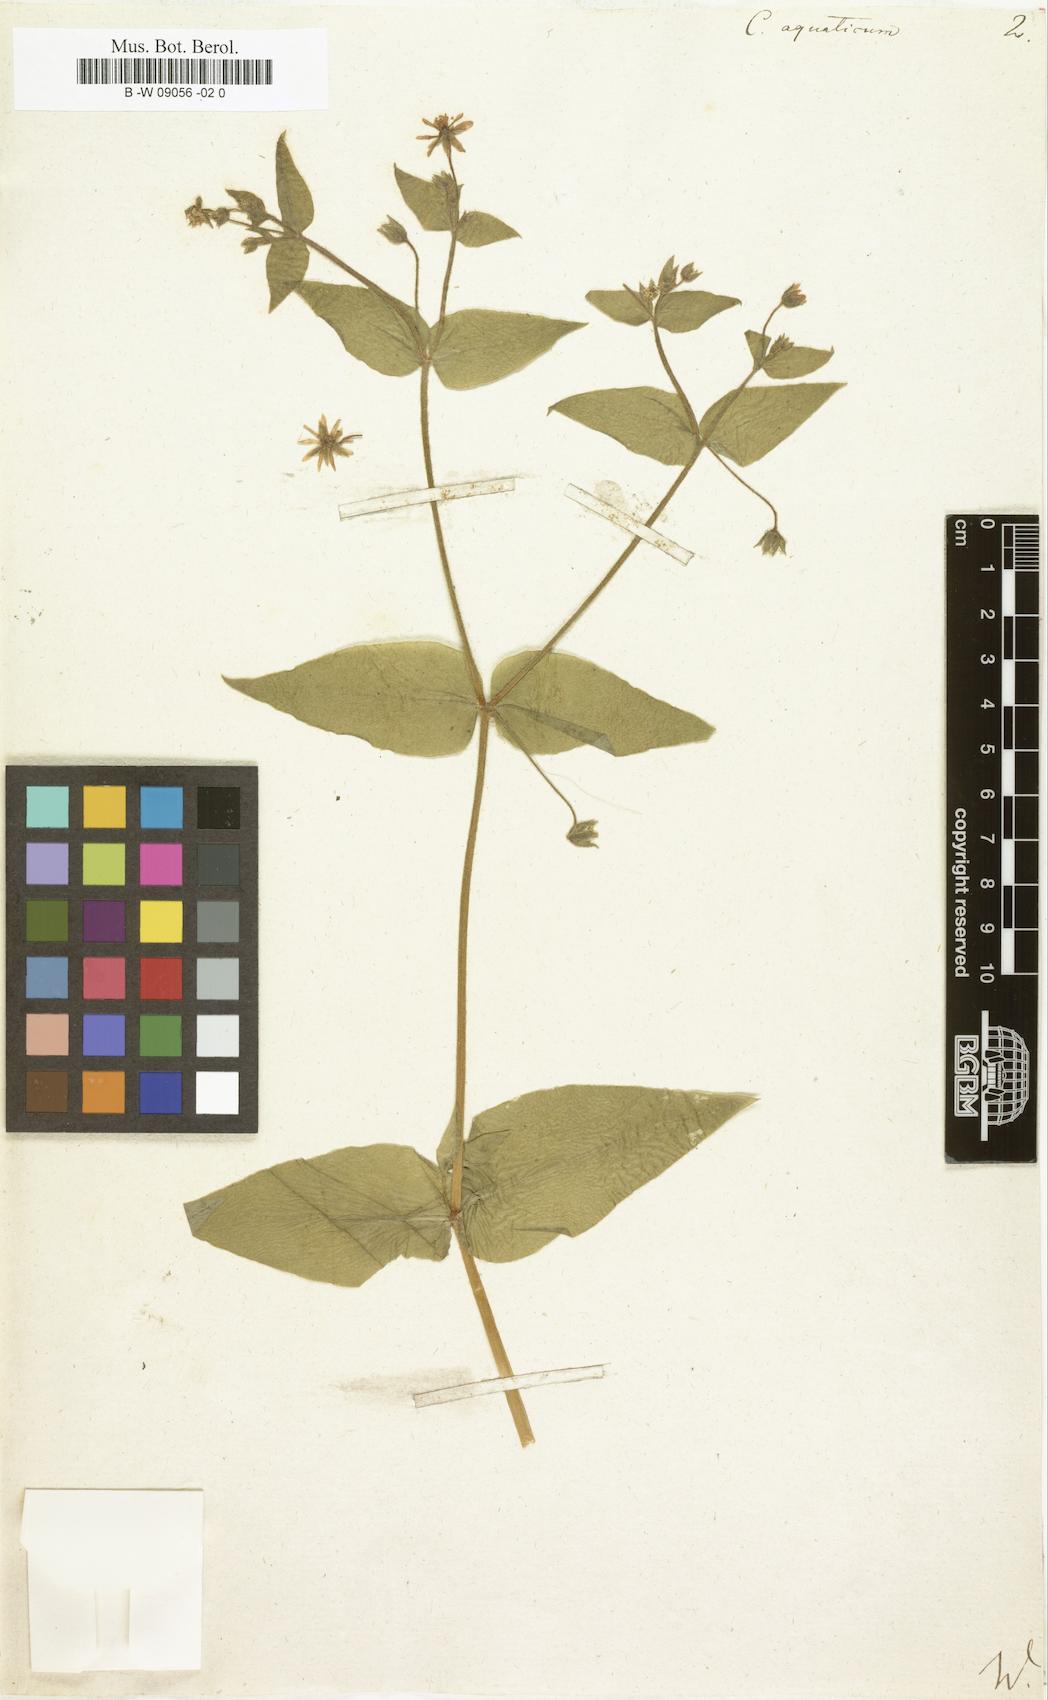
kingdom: Plantae
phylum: Tracheophyta
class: Magnoliopsida
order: Caryophyllales
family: Caryophyllaceae
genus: Stellaria
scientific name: Stellaria aquatica
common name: Water chickweed
